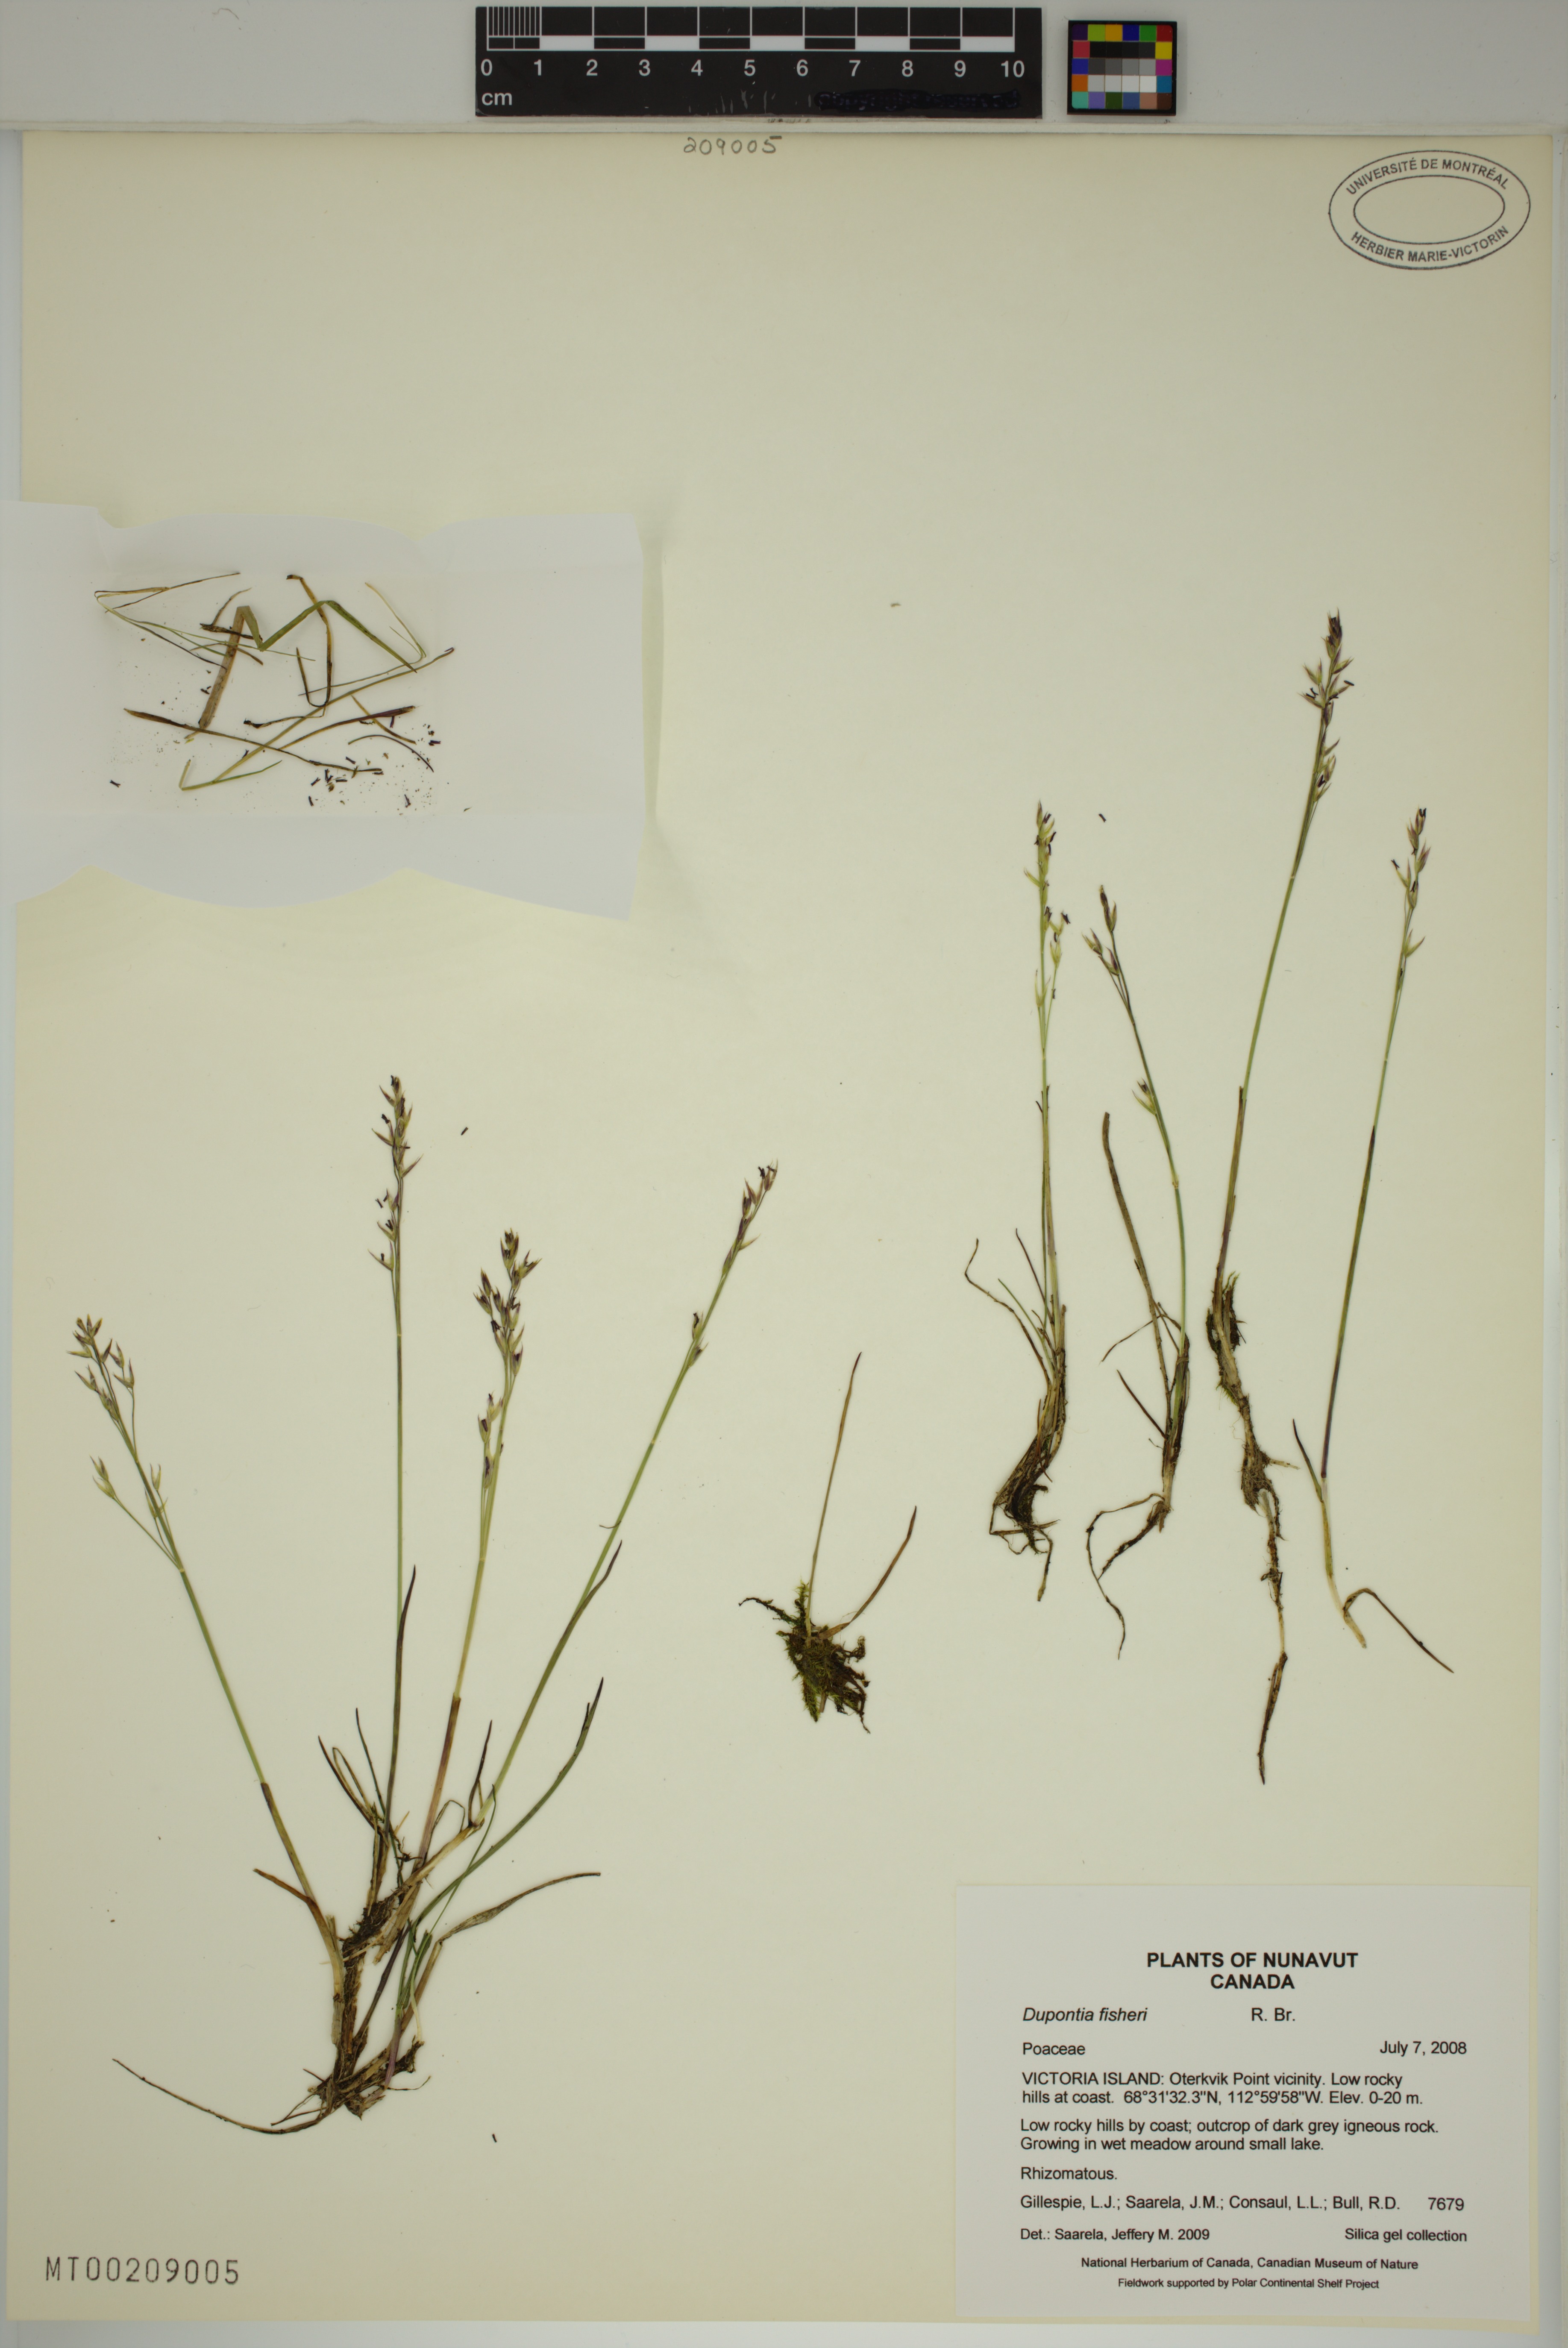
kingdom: Plantae
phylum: Tracheophyta
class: Liliopsida
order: Poales
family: Poaceae
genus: Dupontia
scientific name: Dupontia fisheri
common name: Tundra grass
